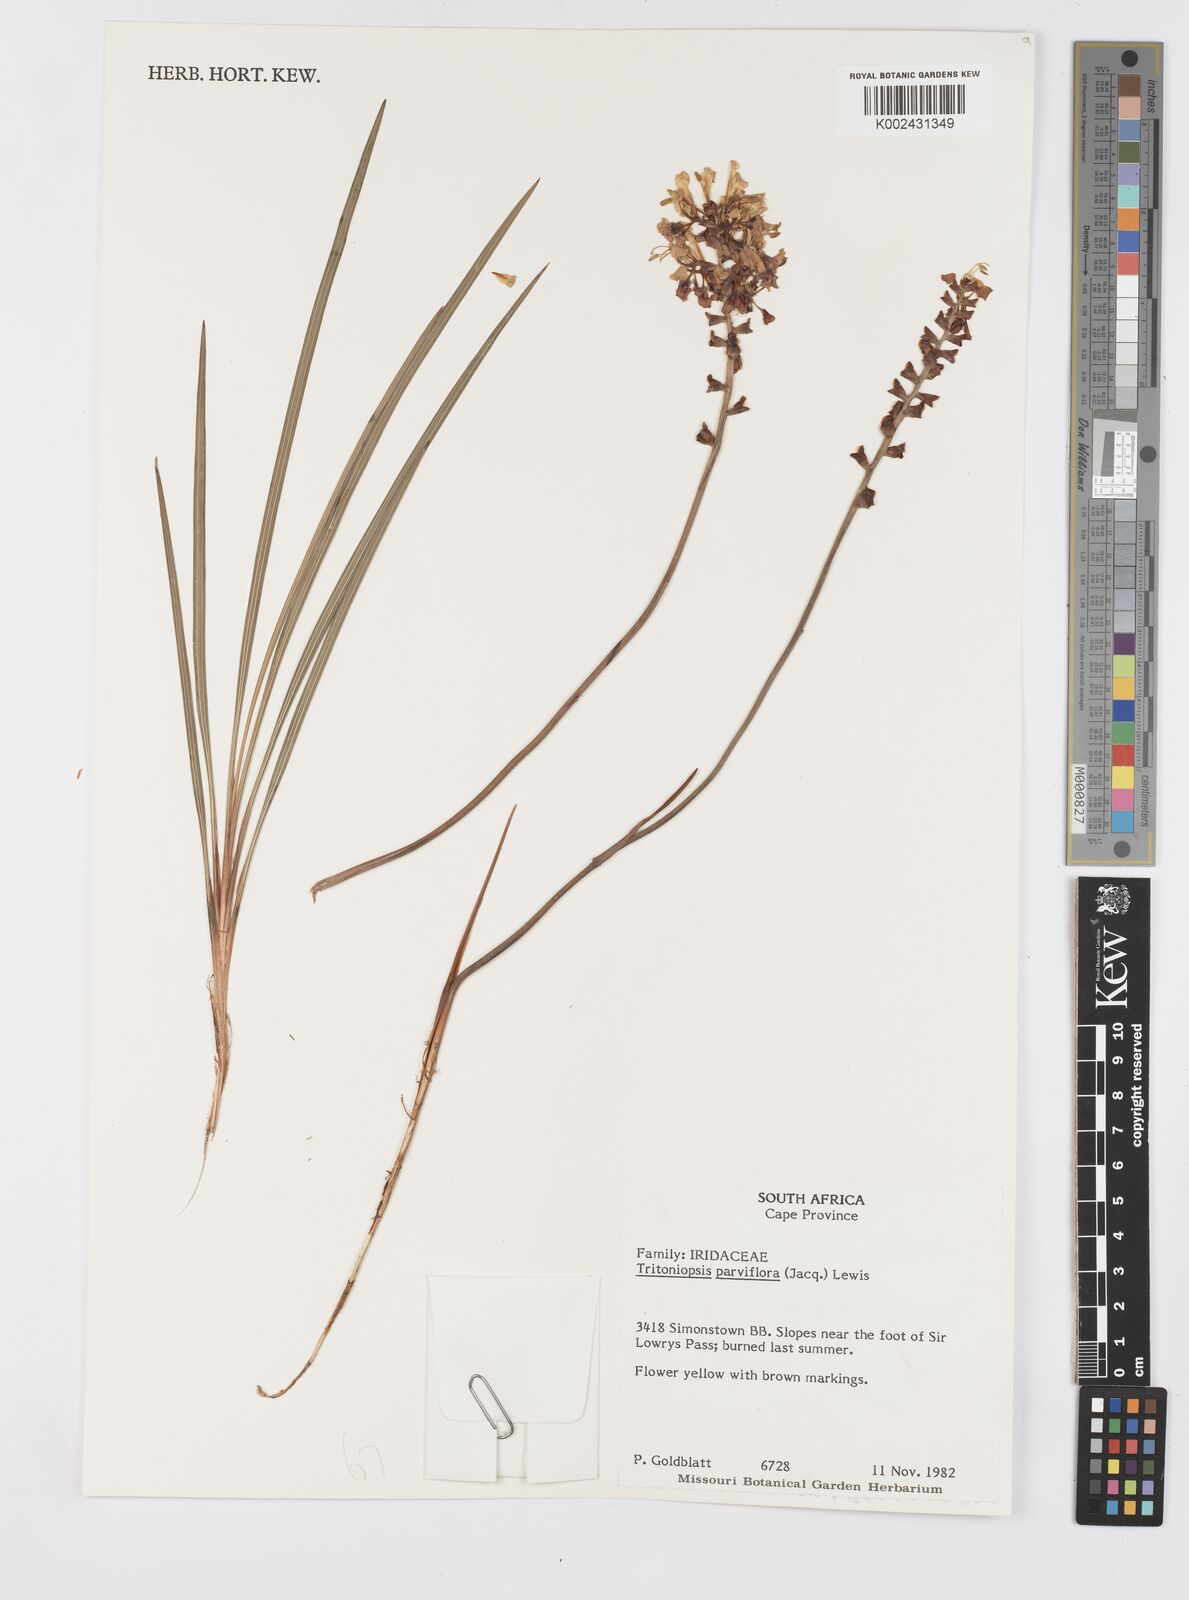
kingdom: Plantae
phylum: Tracheophyta
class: Liliopsida
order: Asparagales
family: Iridaceae
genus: Tritoniopsis
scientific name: Tritoniopsis parviflora
